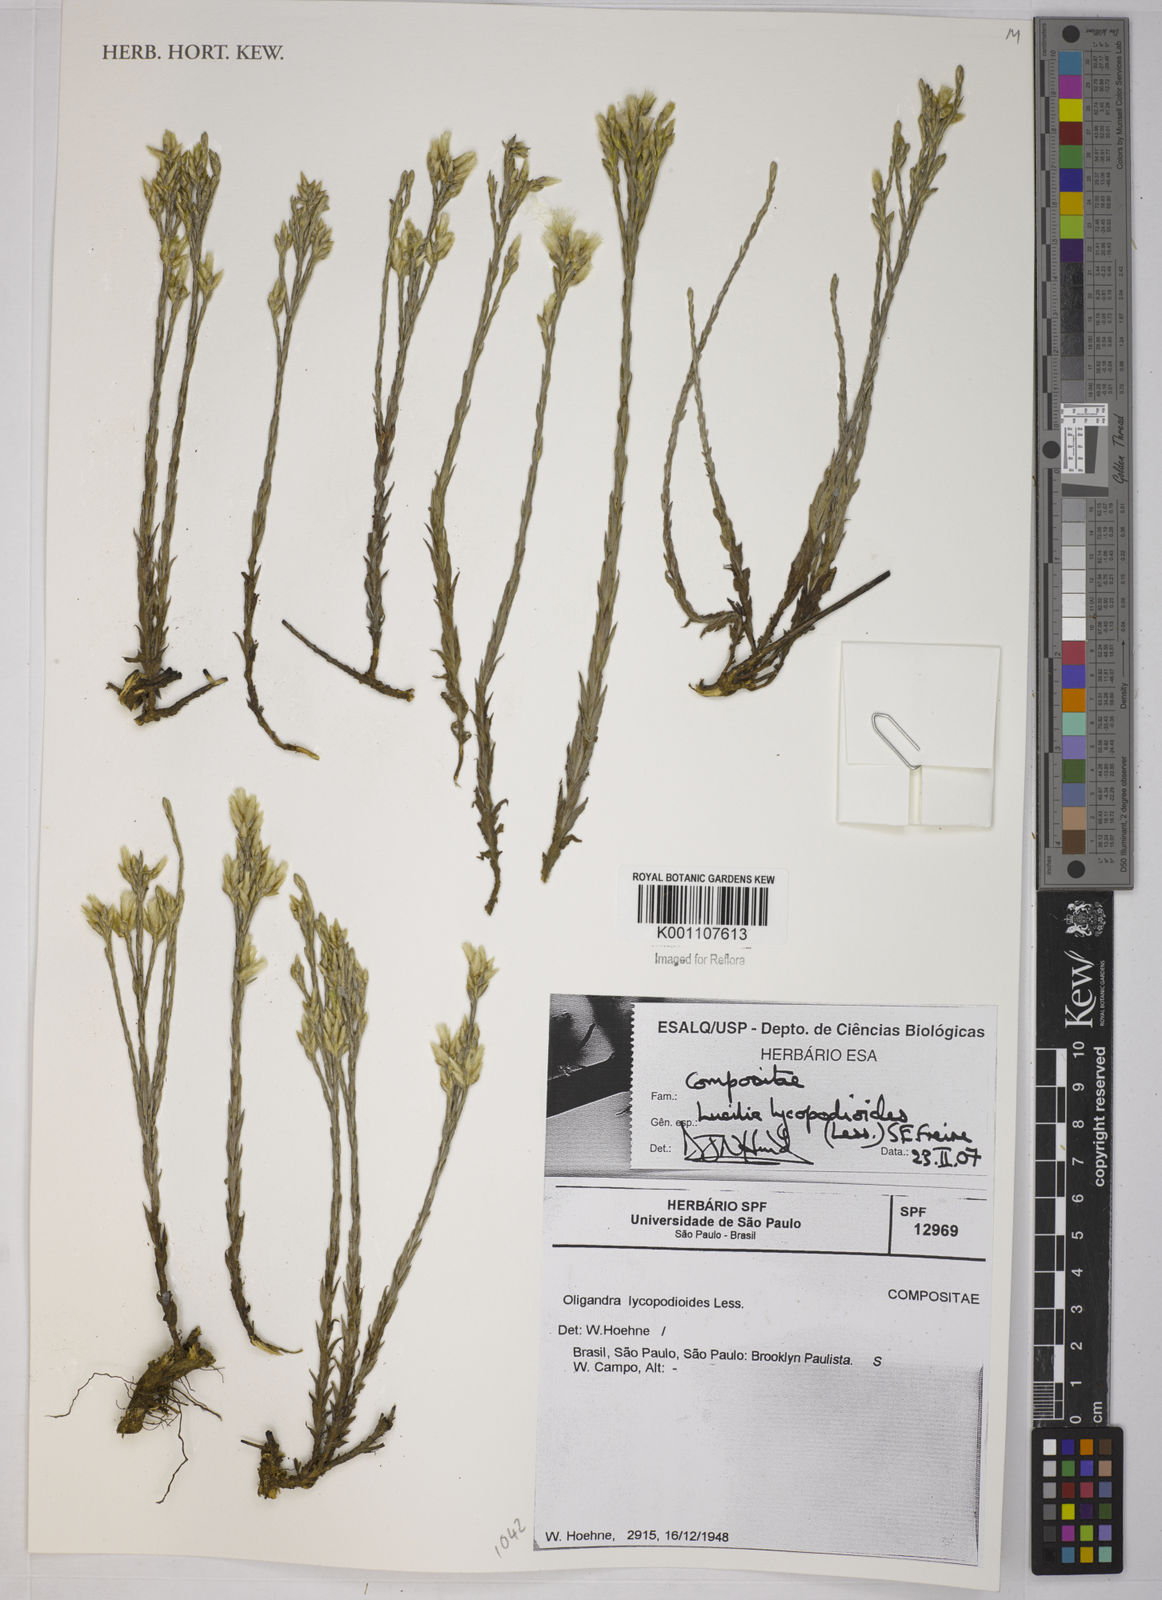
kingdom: Plantae
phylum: Tracheophyta
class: Magnoliopsida
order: Asterales
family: Asteraceae
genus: Lucilia
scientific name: Lucilia lycopodioides
